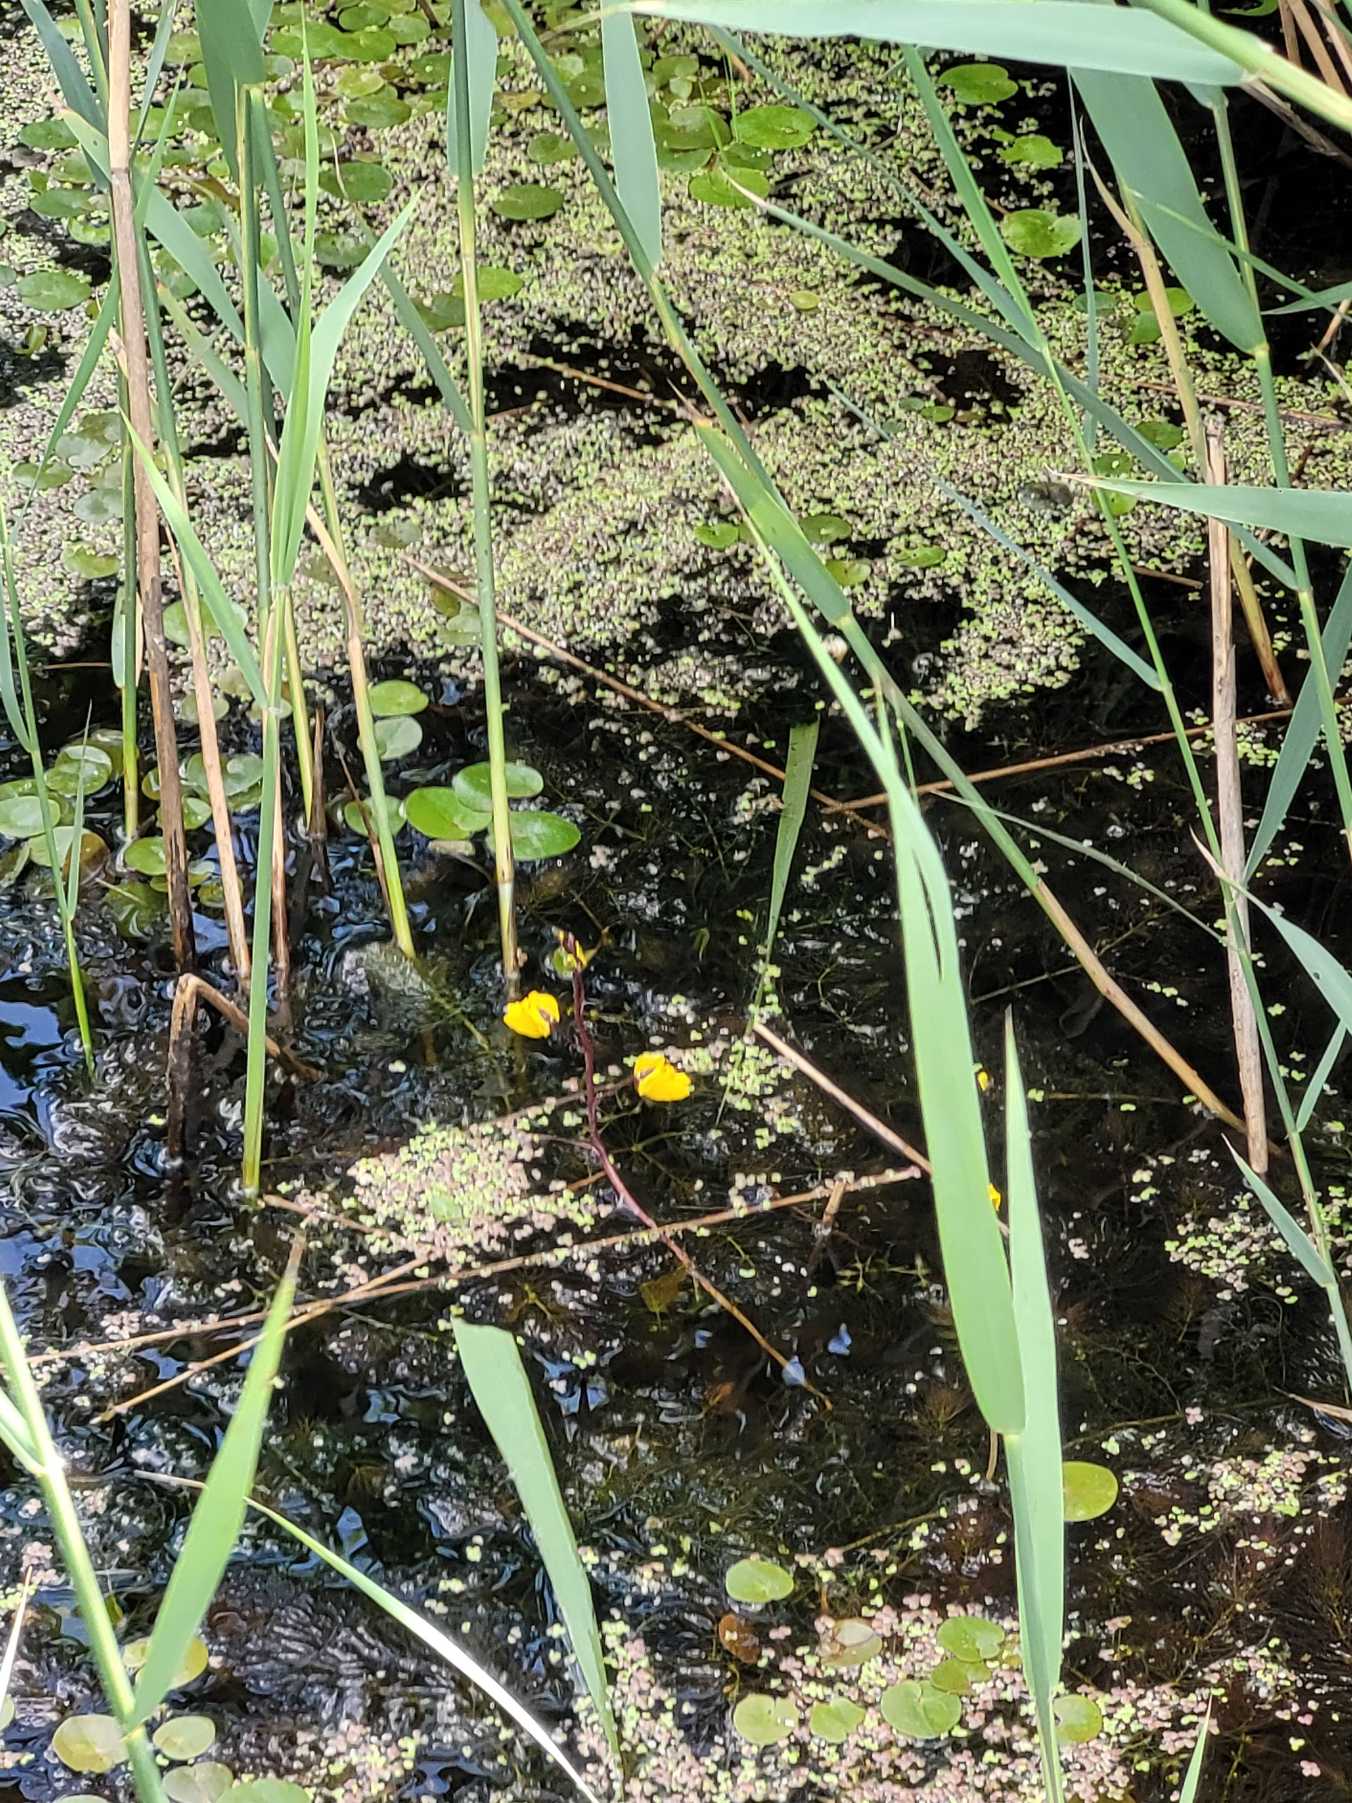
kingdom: Plantae
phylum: Tracheophyta
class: Magnoliopsida
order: Lamiales
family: Lentibulariaceae
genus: Utricularia
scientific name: Utricularia vulgaris
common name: Almindelig blærerod
